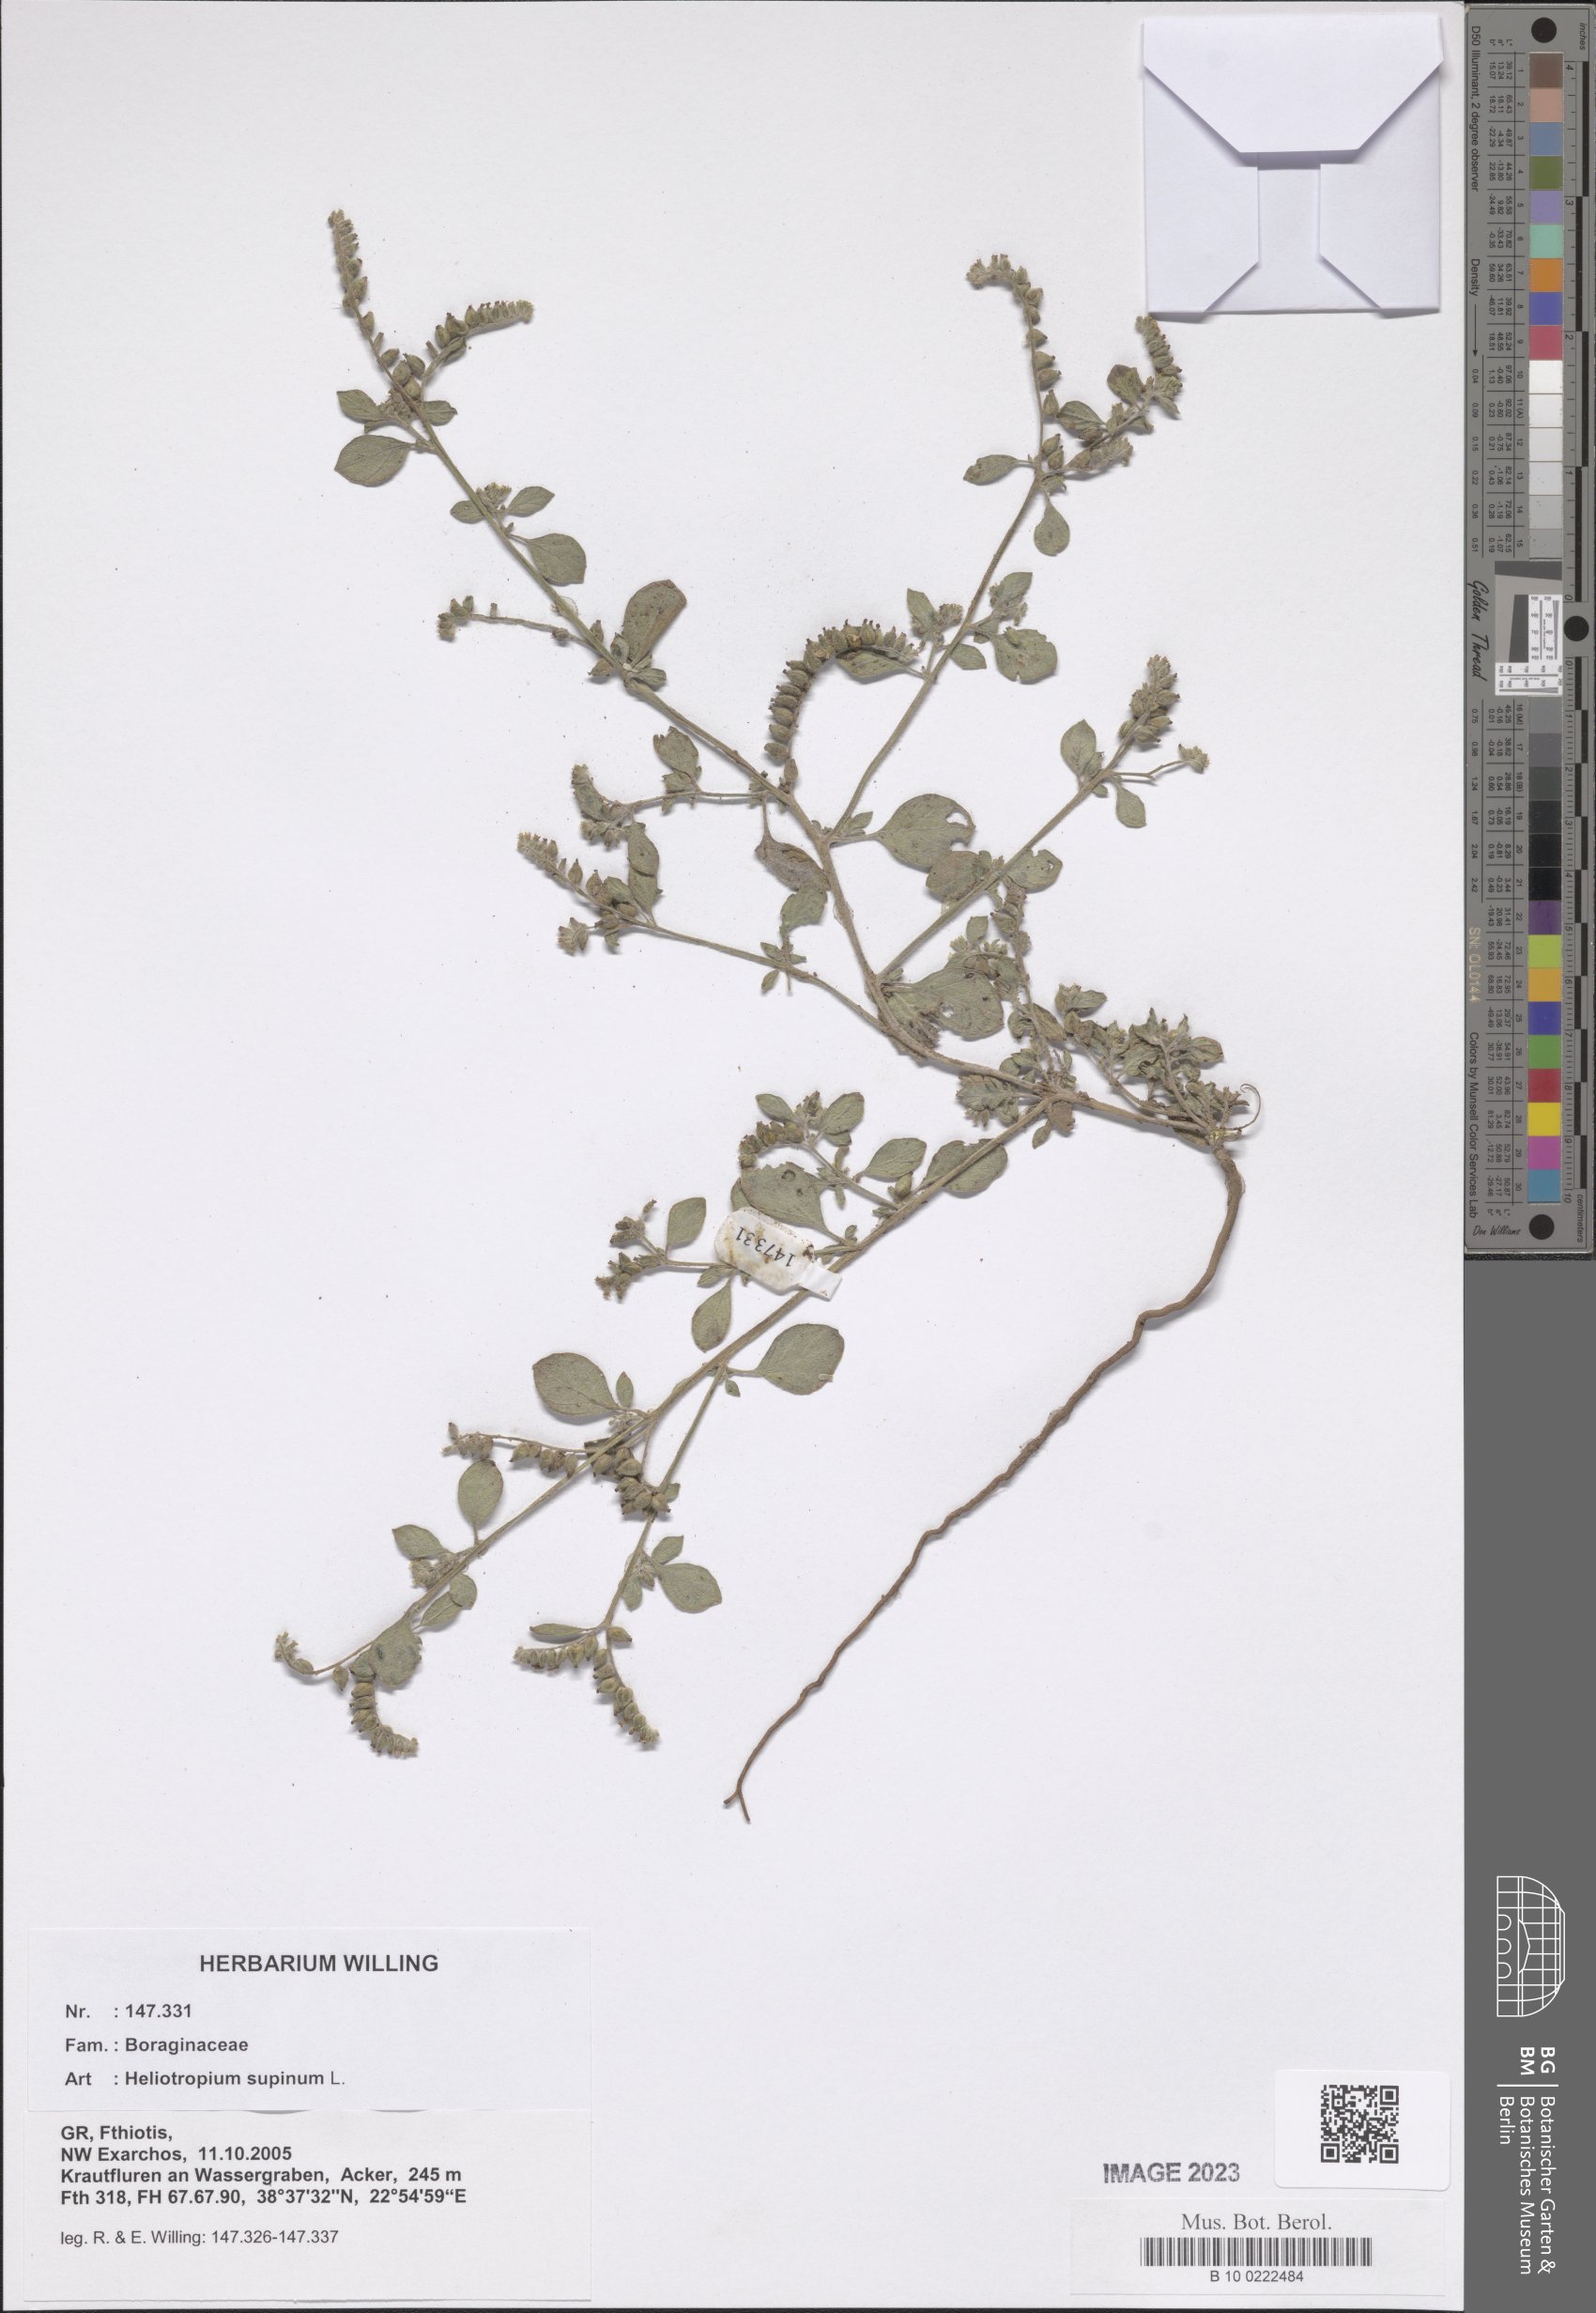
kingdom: Plantae
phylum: Tracheophyta
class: Magnoliopsida
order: Boraginales
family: Heliotropiaceae
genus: Heliotropium
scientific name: Heliotropium supinum
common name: Dwarf heliotrope
